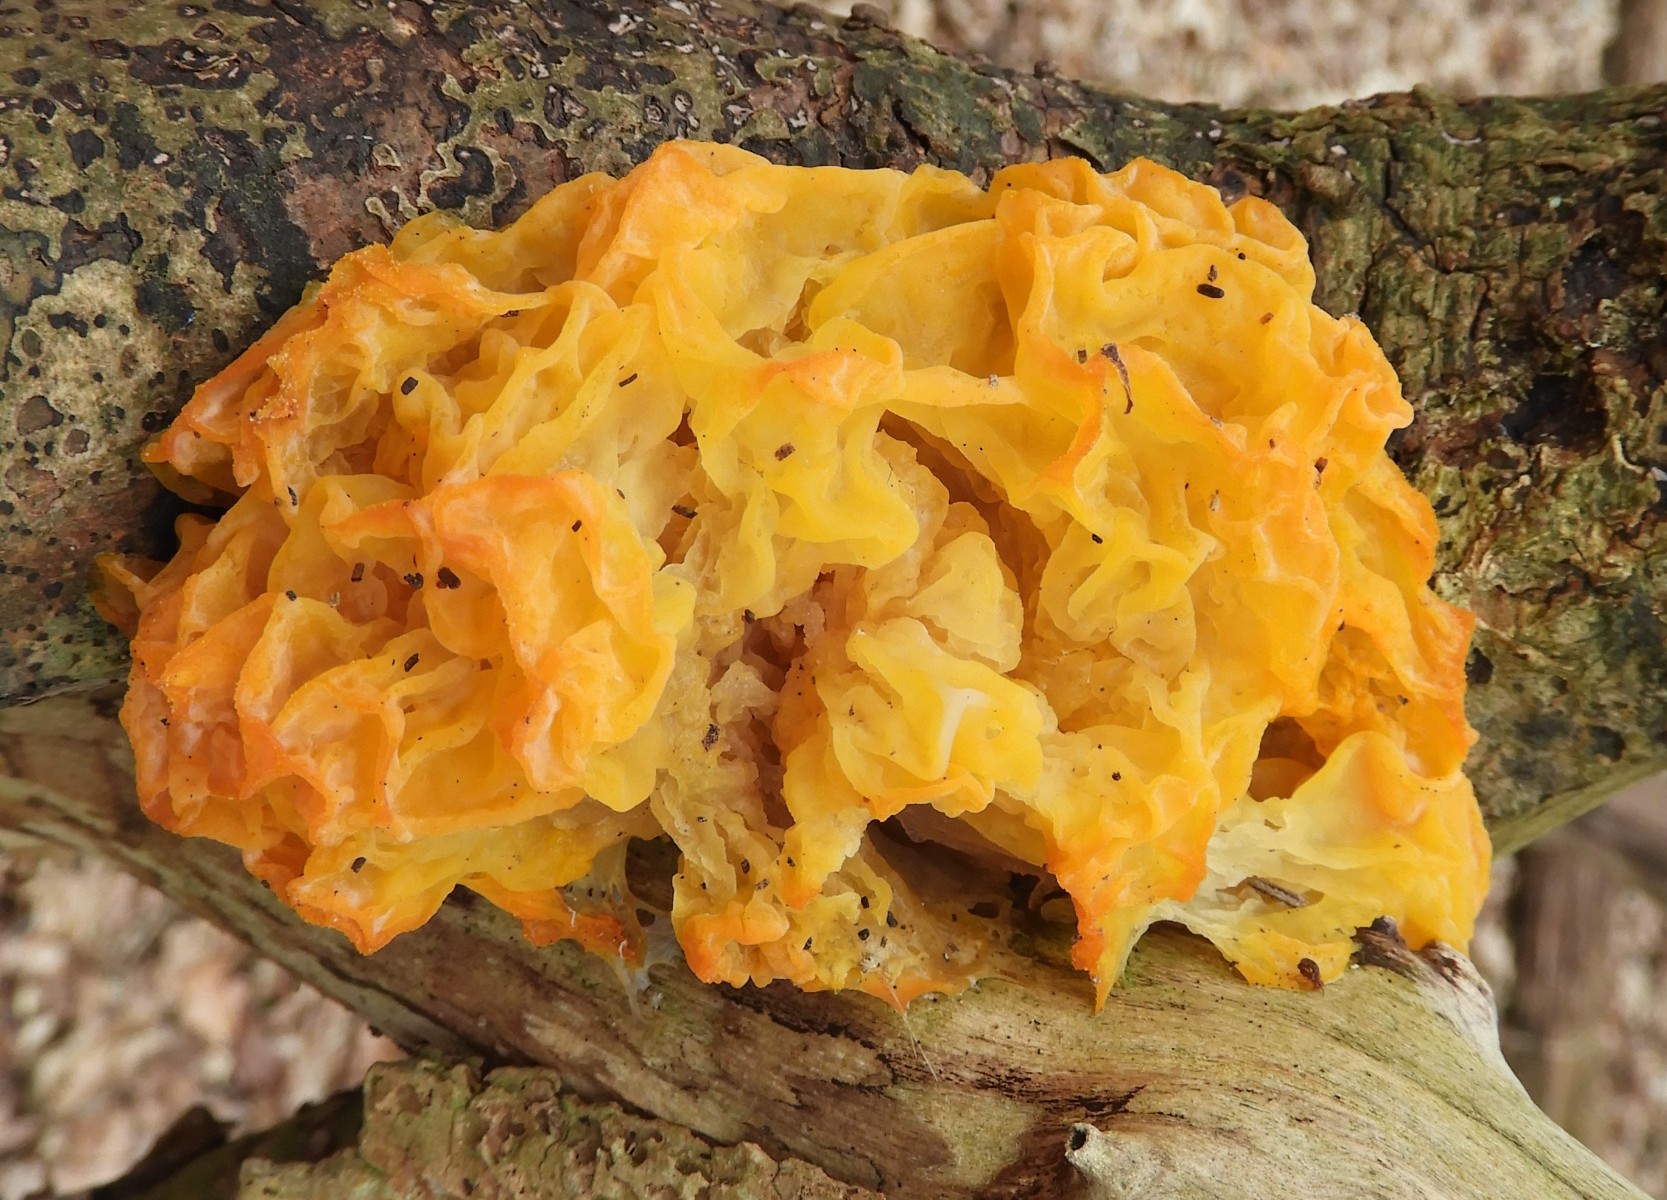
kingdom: Fungi
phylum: Basidiomycota
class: Tremellomycetes
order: Tremellales
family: Tremellaceae
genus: Tremella
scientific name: Tremella mesenterica
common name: gul bævresvamp
